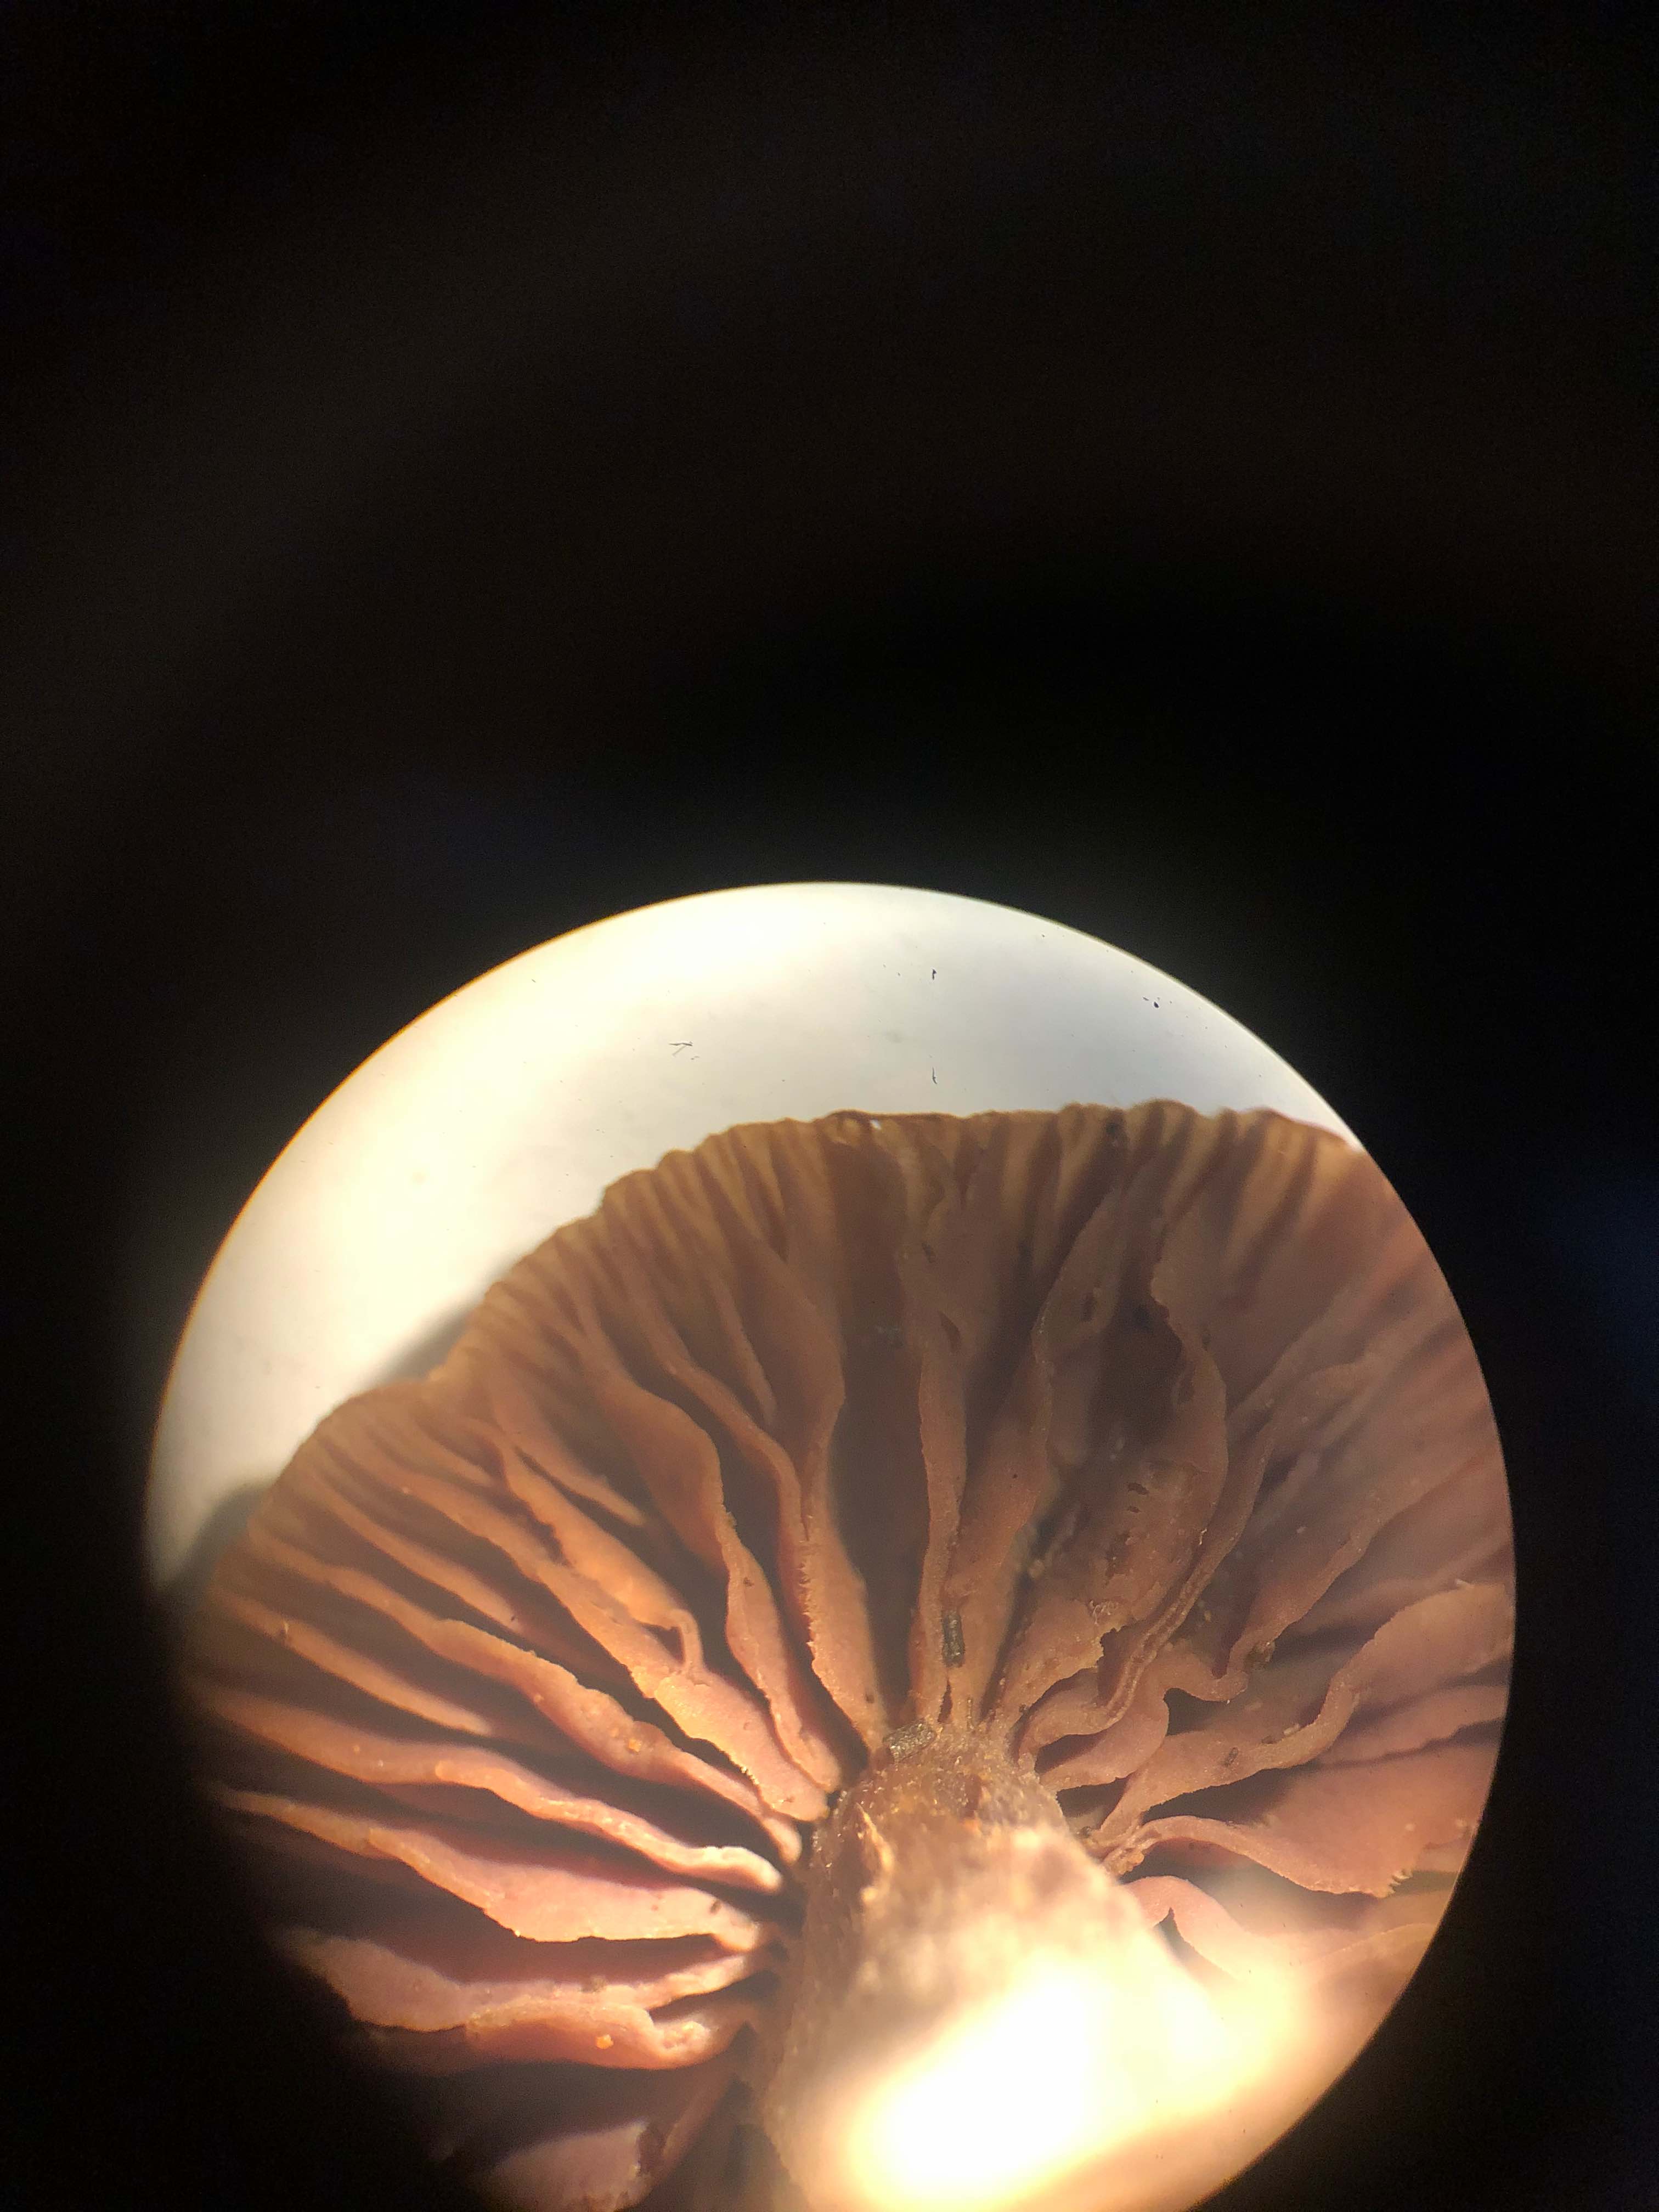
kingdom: Fungi
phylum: Basidiomycota
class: Agaricomycetes
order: Agaricales
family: Hydnangiaceae
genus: Laccaria
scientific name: Laccaria amethystina
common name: violet ametysthat
